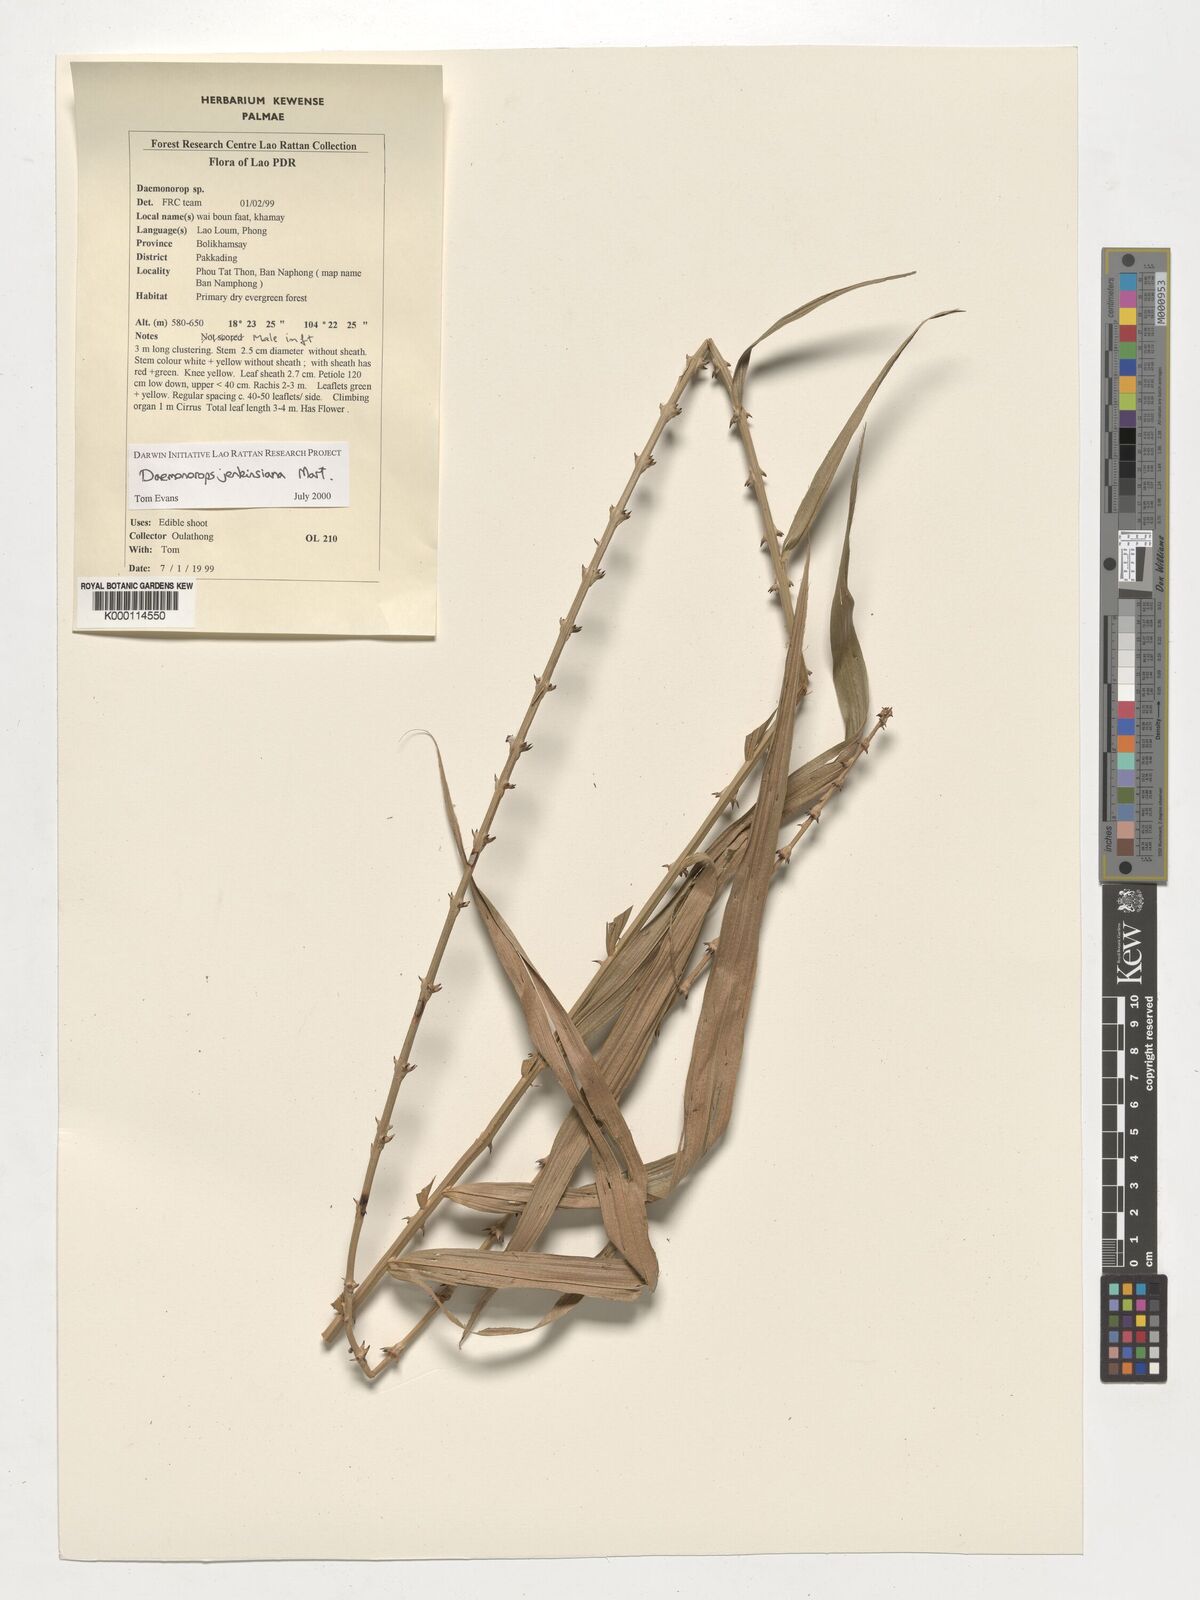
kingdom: Plantae
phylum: Tracheophyta
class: Liliopsida
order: Arecales
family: Arecaceae
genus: Calamus
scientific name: Calamus melanochaetes
